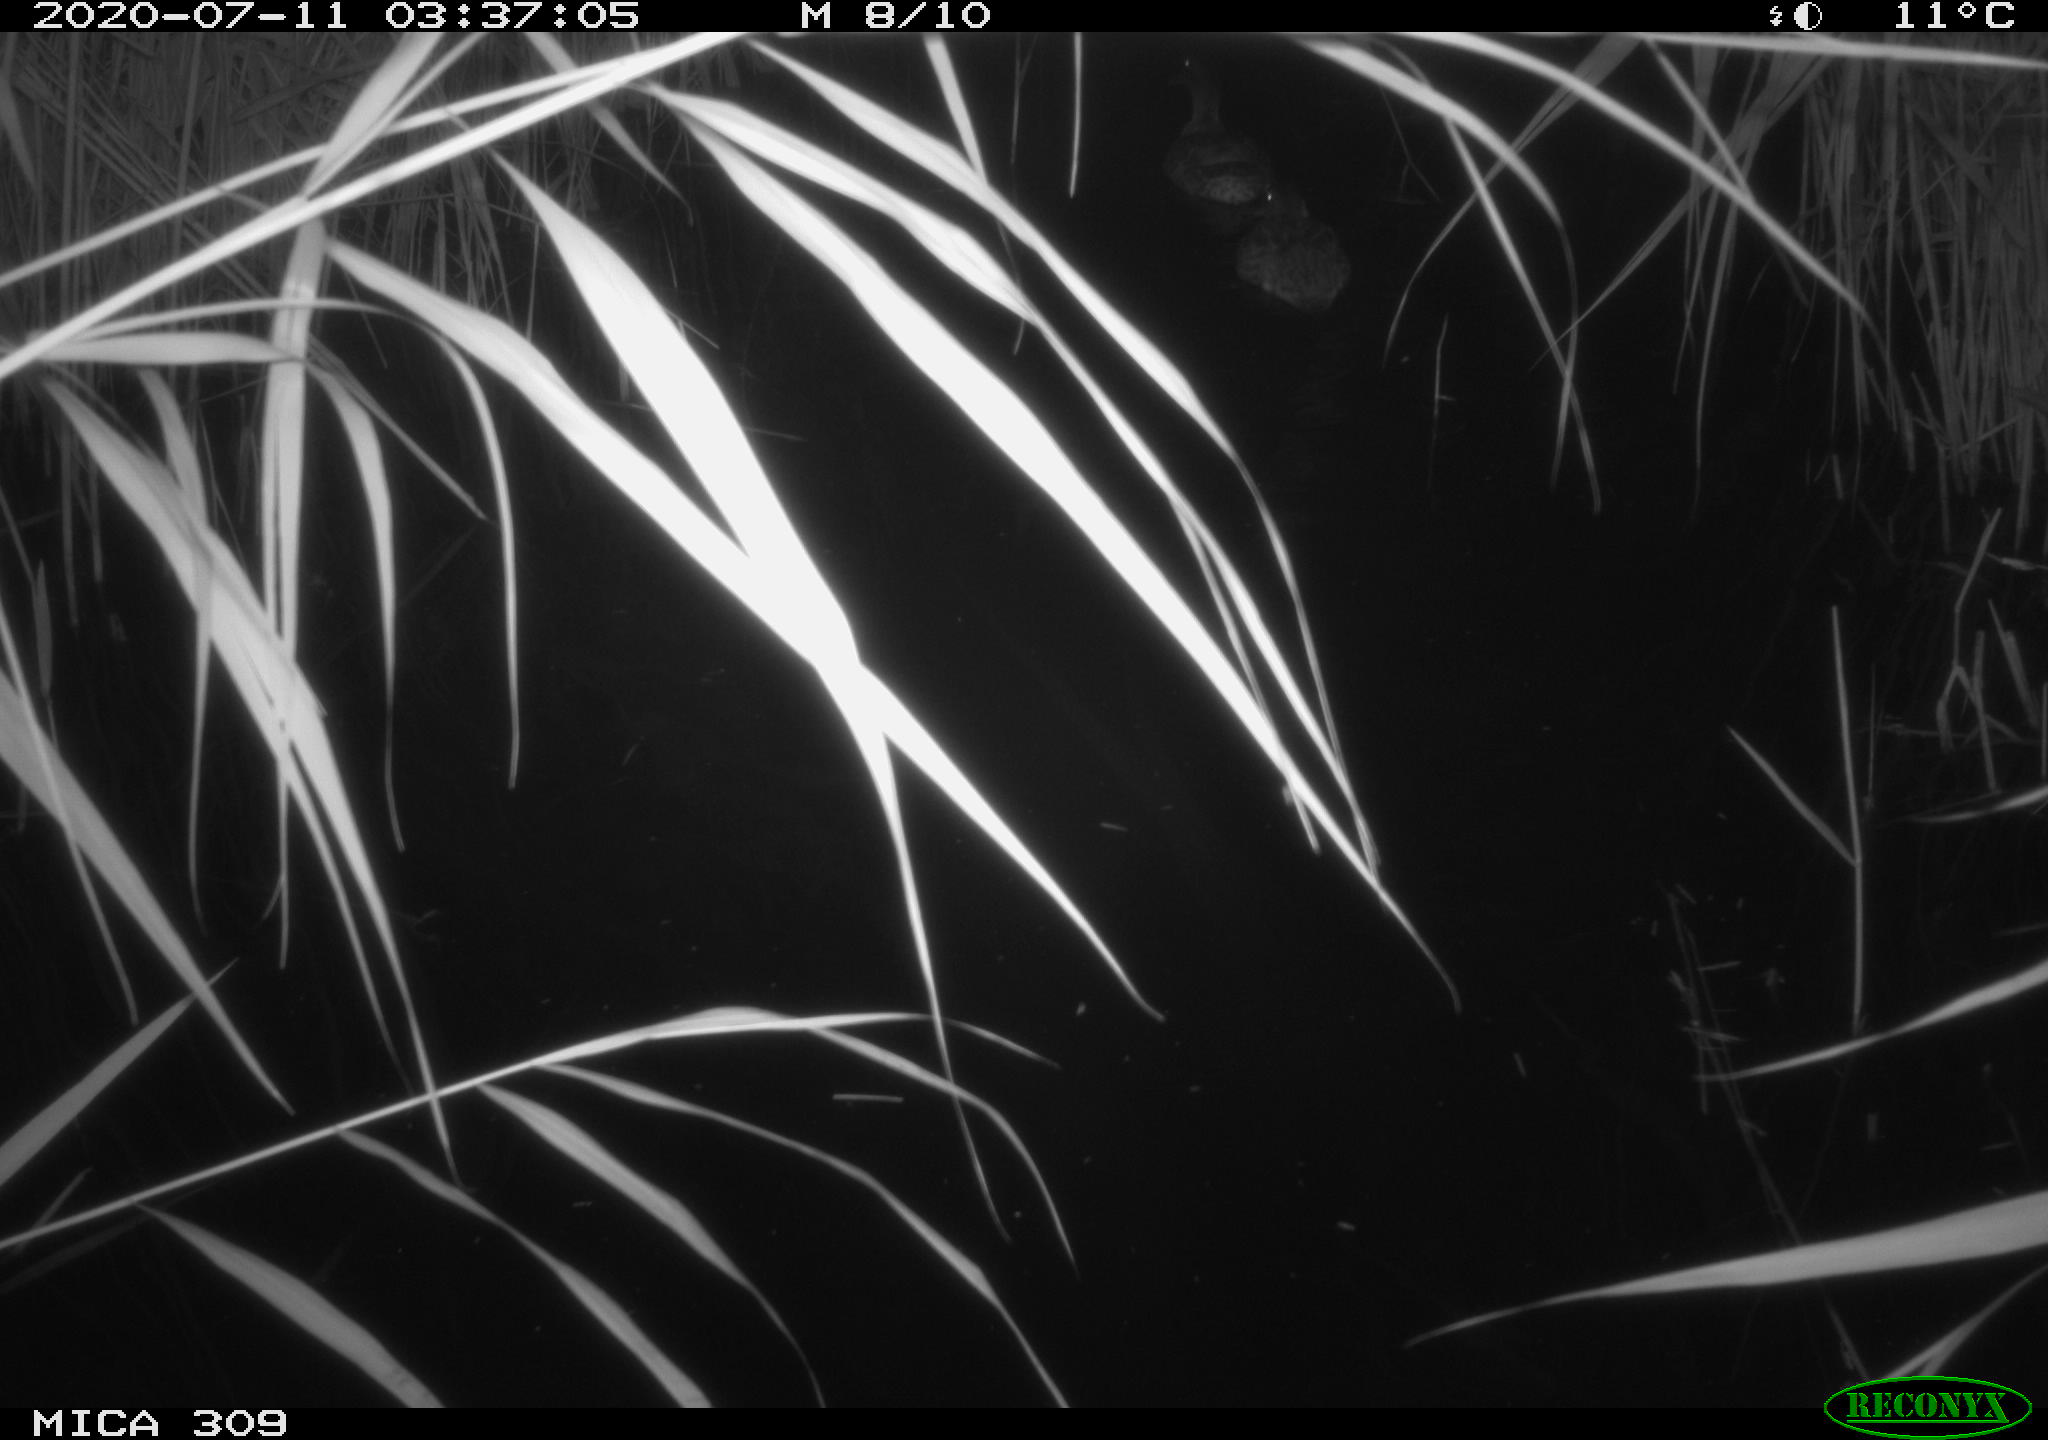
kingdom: Animalia
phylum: Chordata
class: Aves
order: Anseriformes
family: Anatidae
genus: Anas
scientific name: Anas platyrhynchos
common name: Mallard
